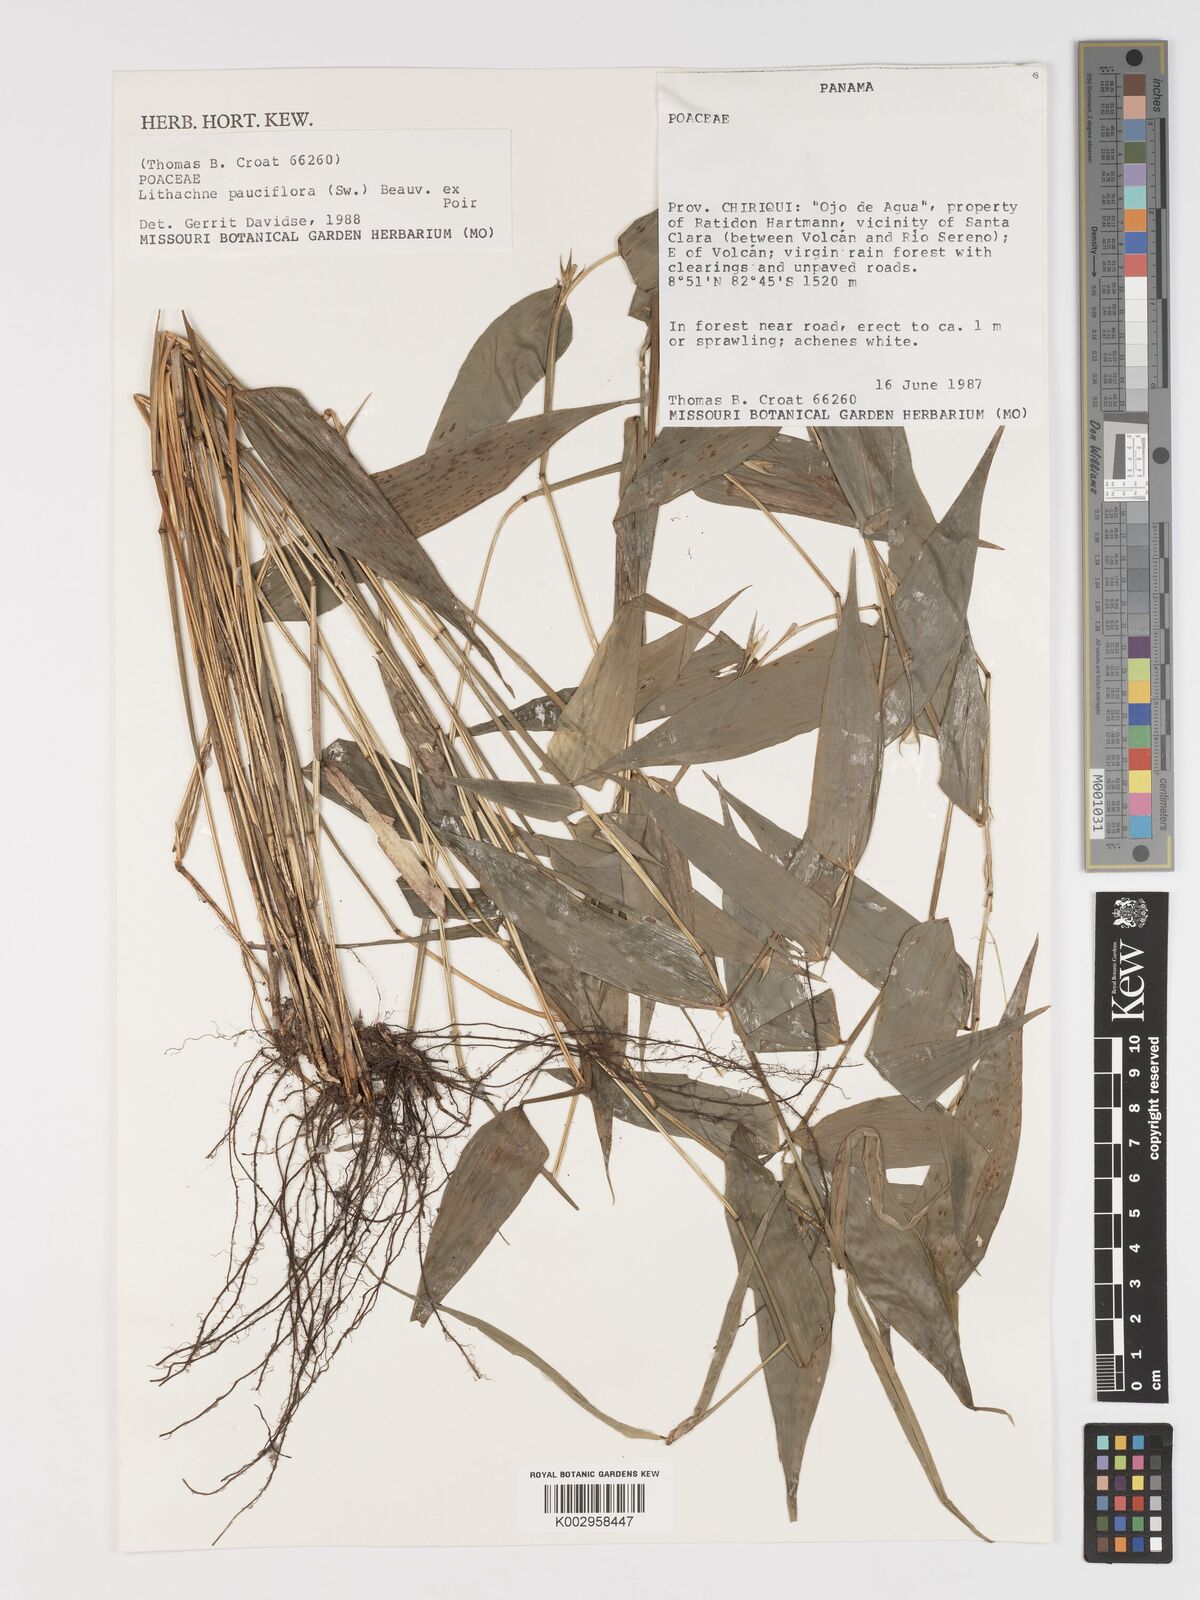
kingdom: Plantae
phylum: Tracheophyta
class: Liliopsida
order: Poales
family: Poaceae
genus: Lithachne
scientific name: Lithachne pauciflora
